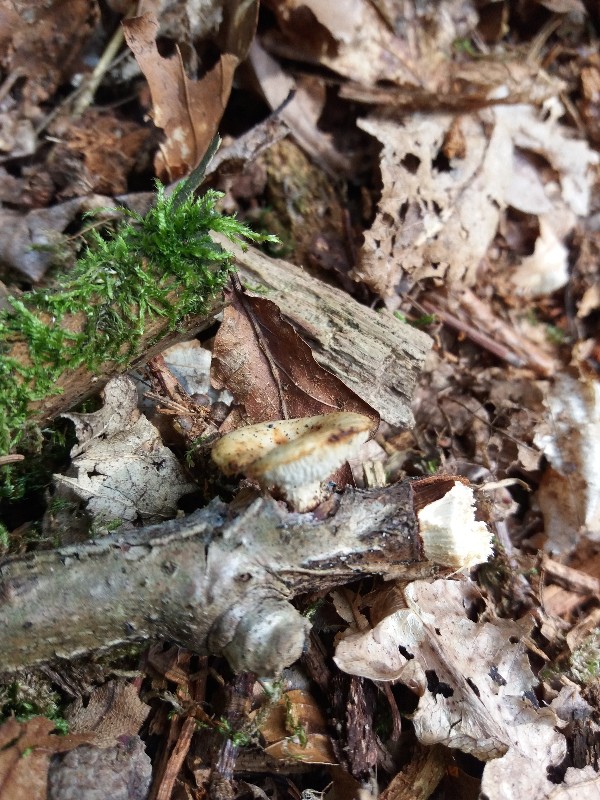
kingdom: Fungi
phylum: Basidiomycota
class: Agaricomycetes
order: Polyporales
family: Polyporaceae
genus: Polyporus
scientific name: Polyporus
